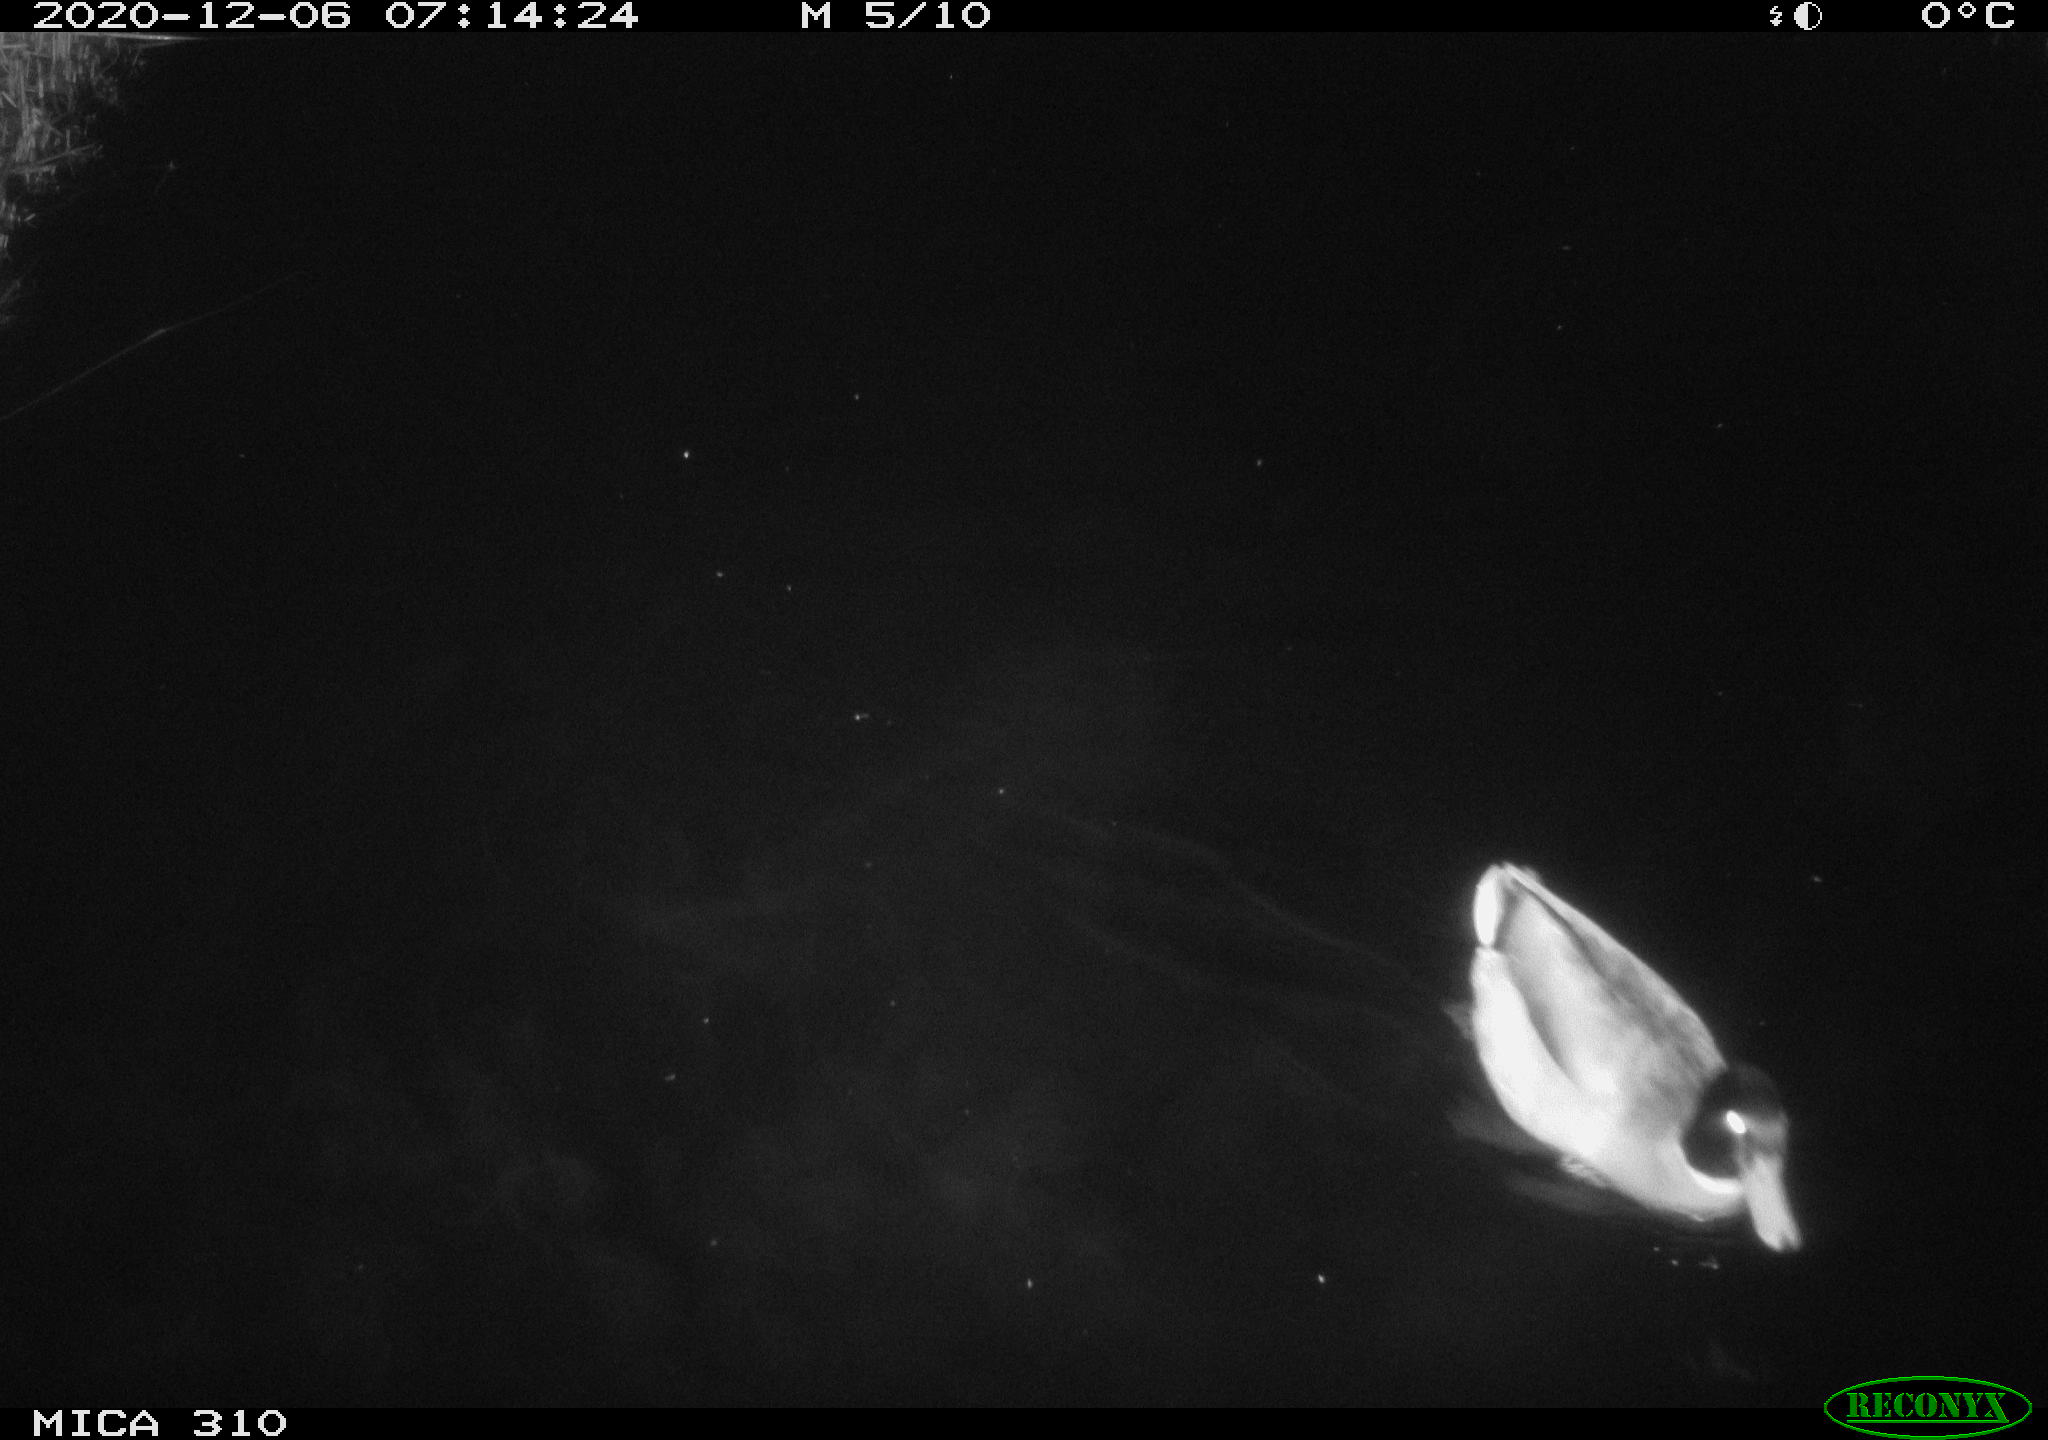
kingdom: Animalia
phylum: Chordata
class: Aves
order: Anseriformes
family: Anatidae
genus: Anas
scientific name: Anas platyrhynchos
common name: Mallard
